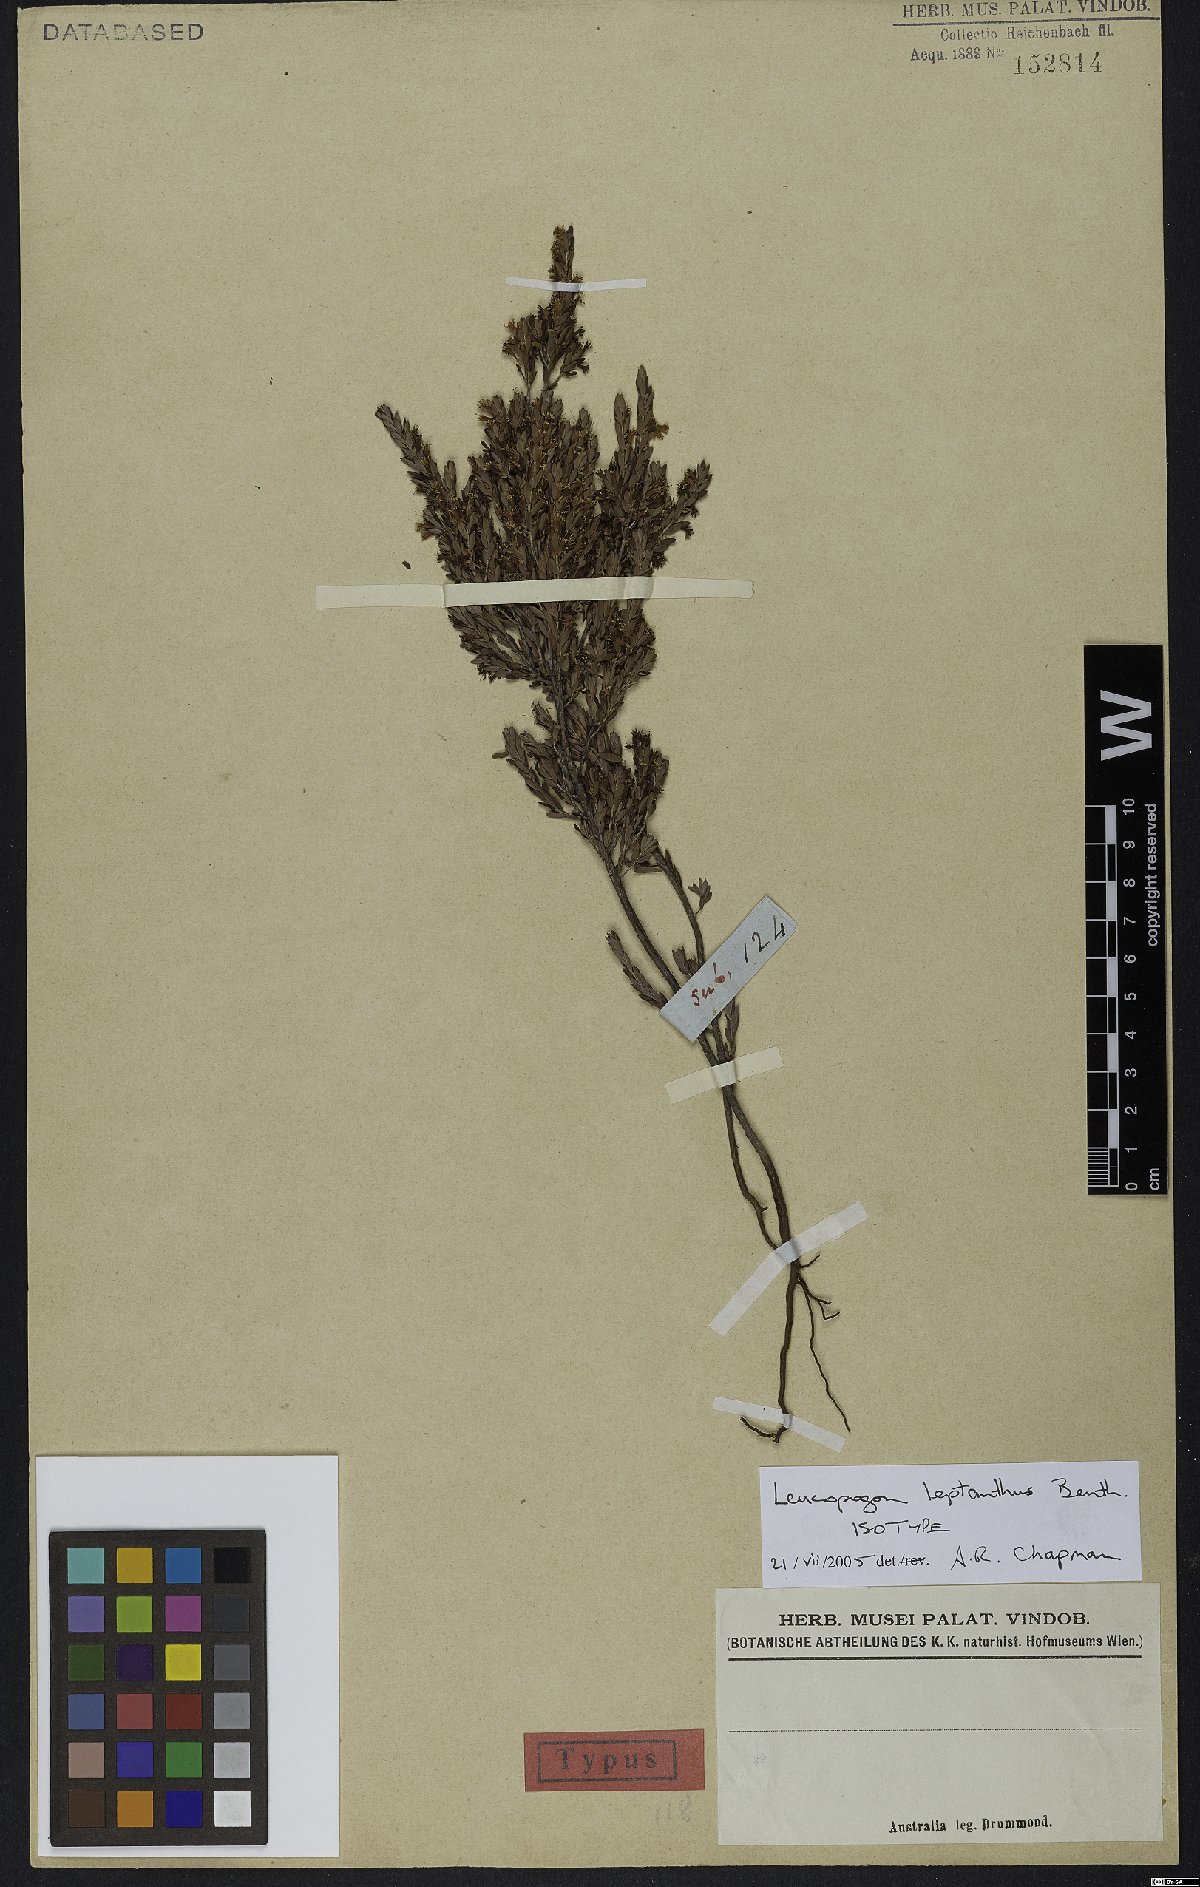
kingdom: Plantae
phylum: Tracheophyta
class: Magnoliopsida
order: Ericales
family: Ericaceae
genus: Styphelia
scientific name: Styphelia leptantha
